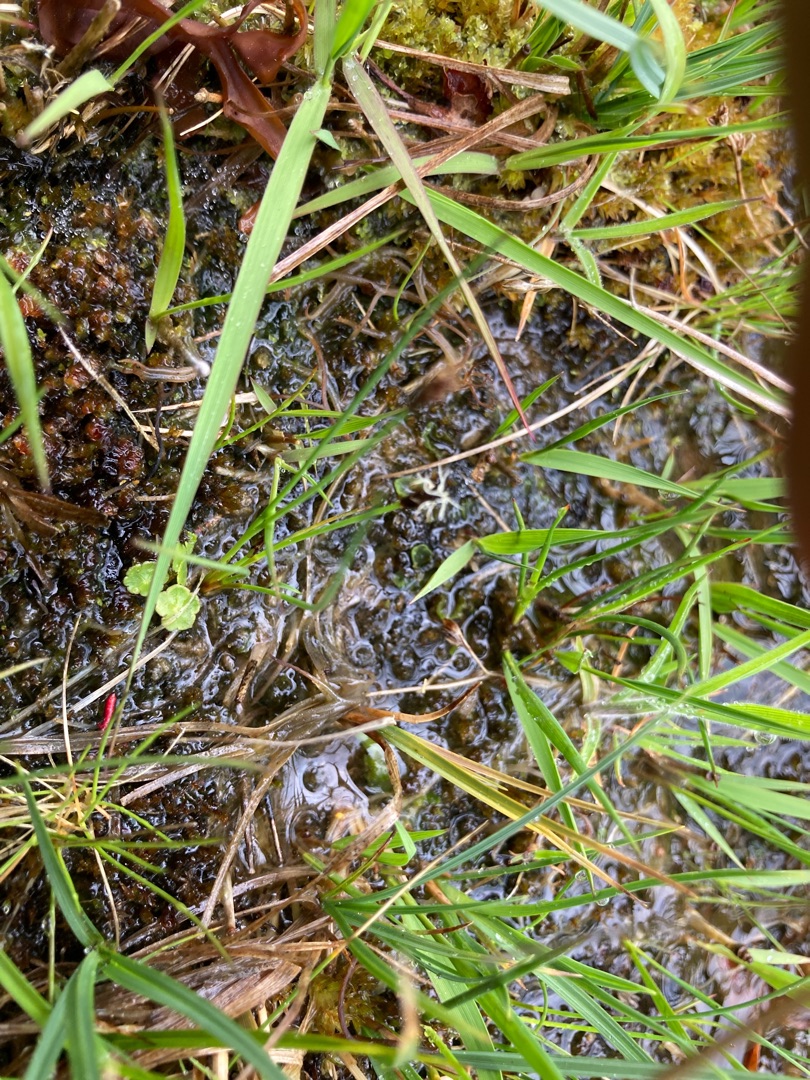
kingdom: Plantae
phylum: Tracheophyta
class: Liliopsida
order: Poales
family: Cyperaceae
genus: Eleocharis
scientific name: Eleocharis quinqueflora
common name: Fåblomstret kogleaks
